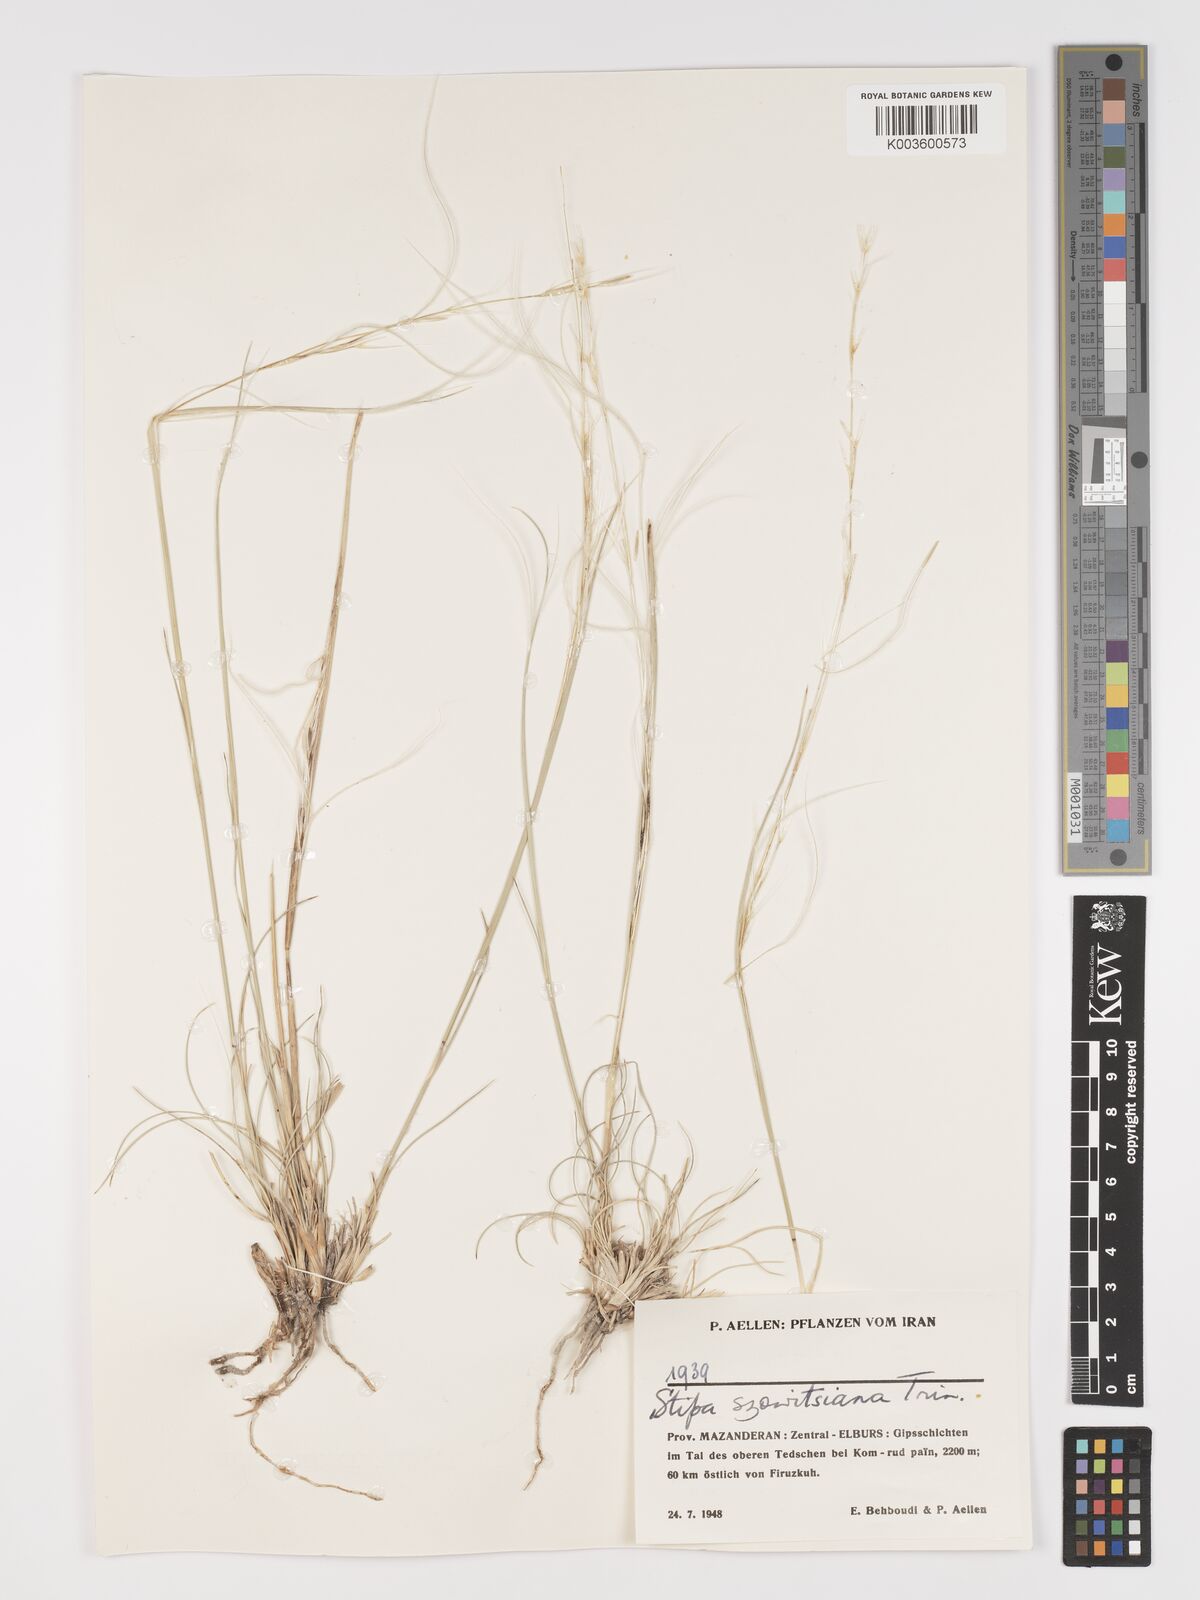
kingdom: Plantae
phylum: Tracheophyta
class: Liliopsida
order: Poales
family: Poaceae
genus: Stipa
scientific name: Stipa barbata
